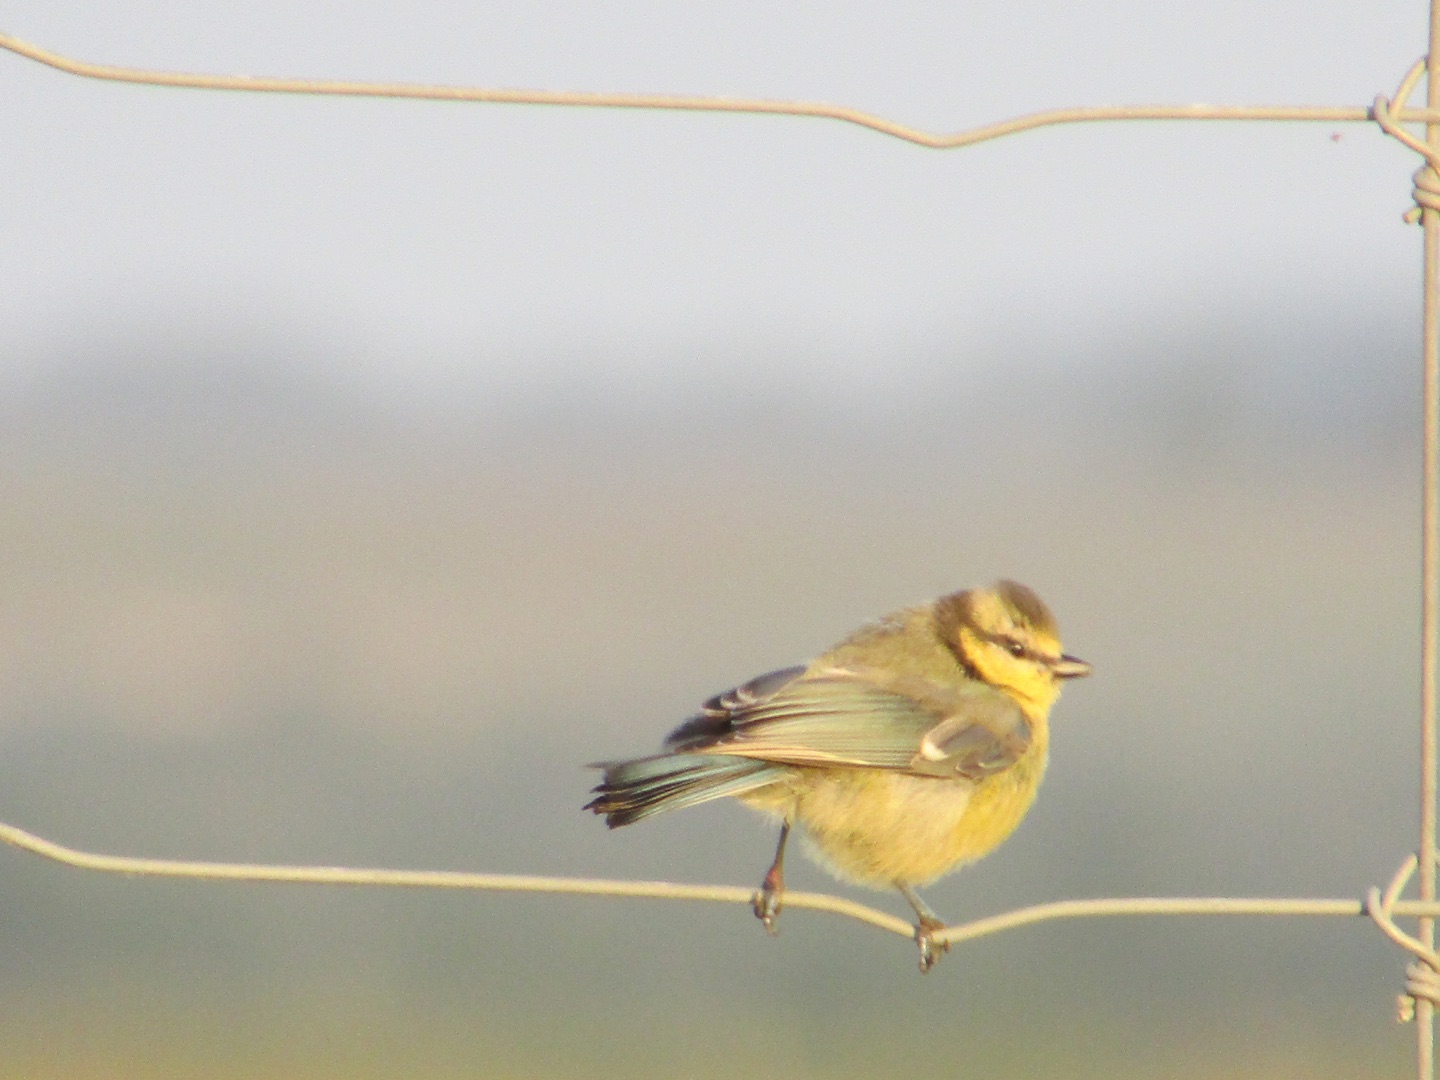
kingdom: Animalia
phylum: Chordata
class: Aves
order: Passeriformes
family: Paridae
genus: Cyanistes
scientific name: Cyanistes caeruleus
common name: Blåmejse
